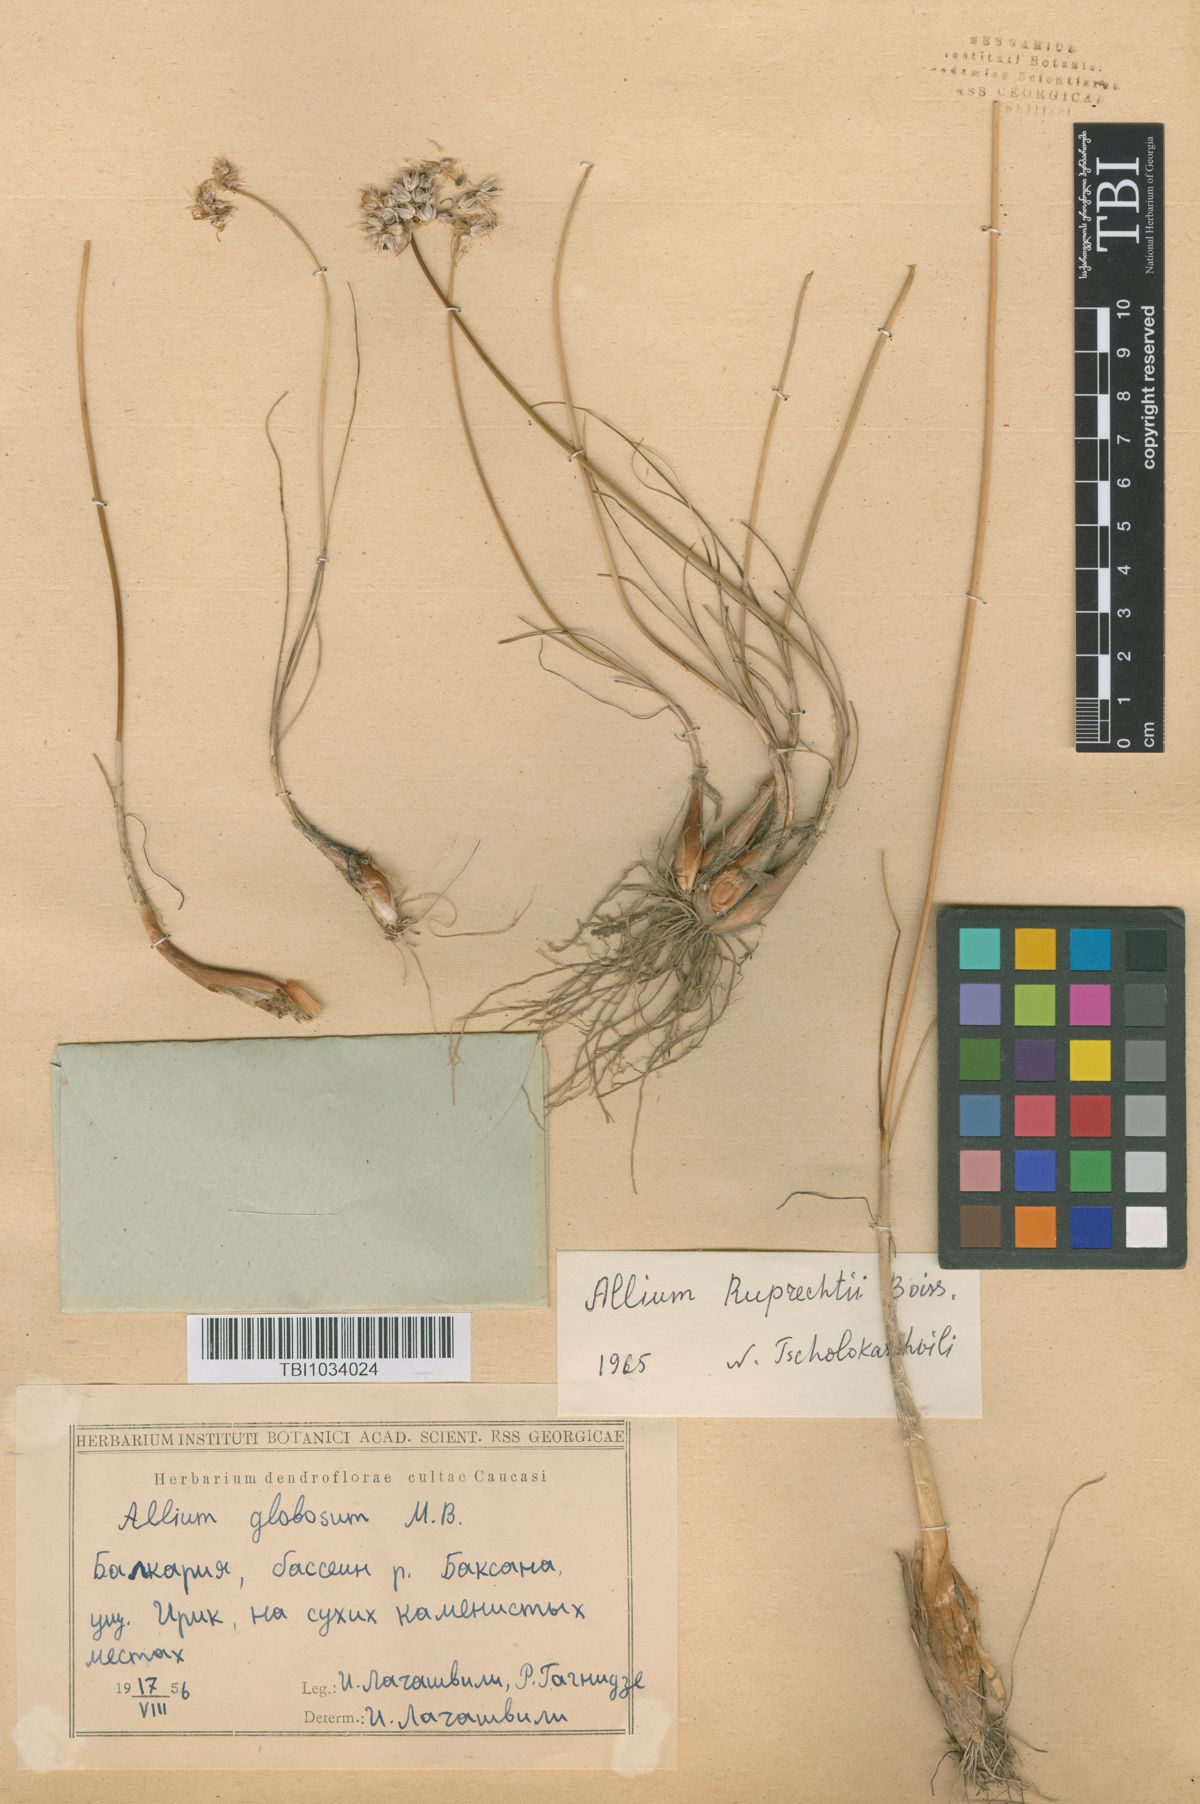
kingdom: Plantae
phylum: Tracheophyta
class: Liliopsida
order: Asparagales
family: Amaryllidaceae
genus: Allium
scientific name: Allium saxatile
